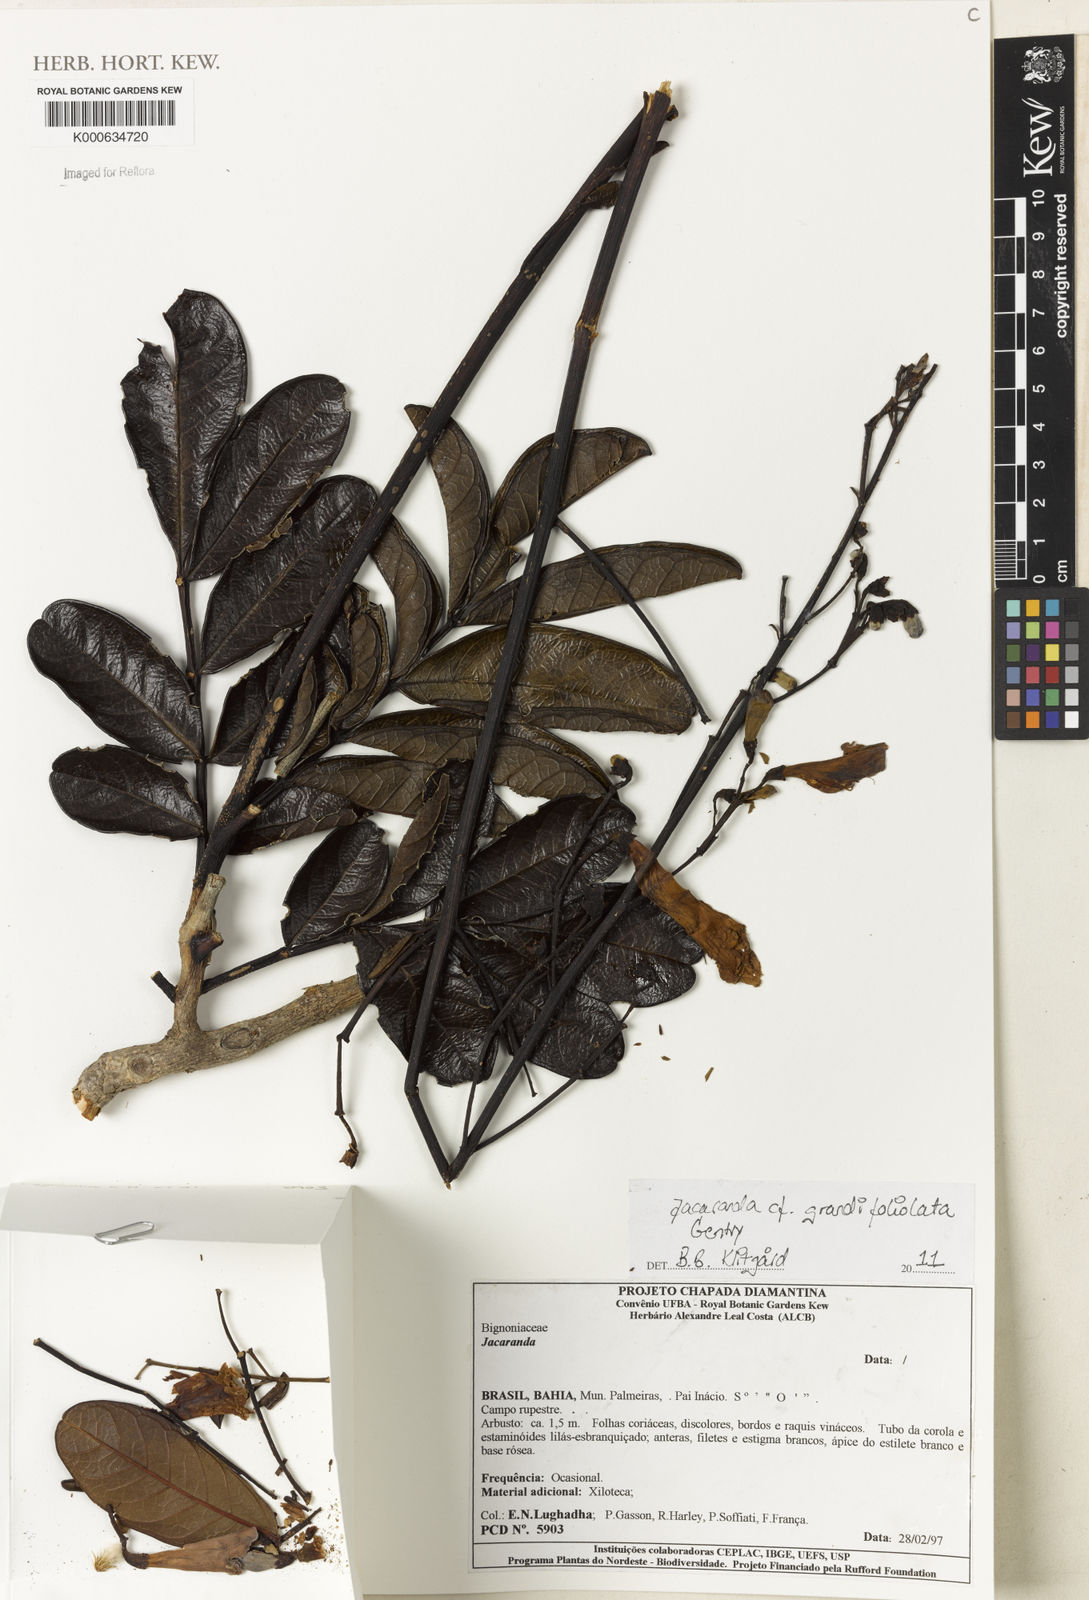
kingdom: Plantae
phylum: Tracheophyta
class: Magnoliopsida
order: Lamiales
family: Bignoniaceae
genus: Jacaranda
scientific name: Jacaranda grandifoliolata
